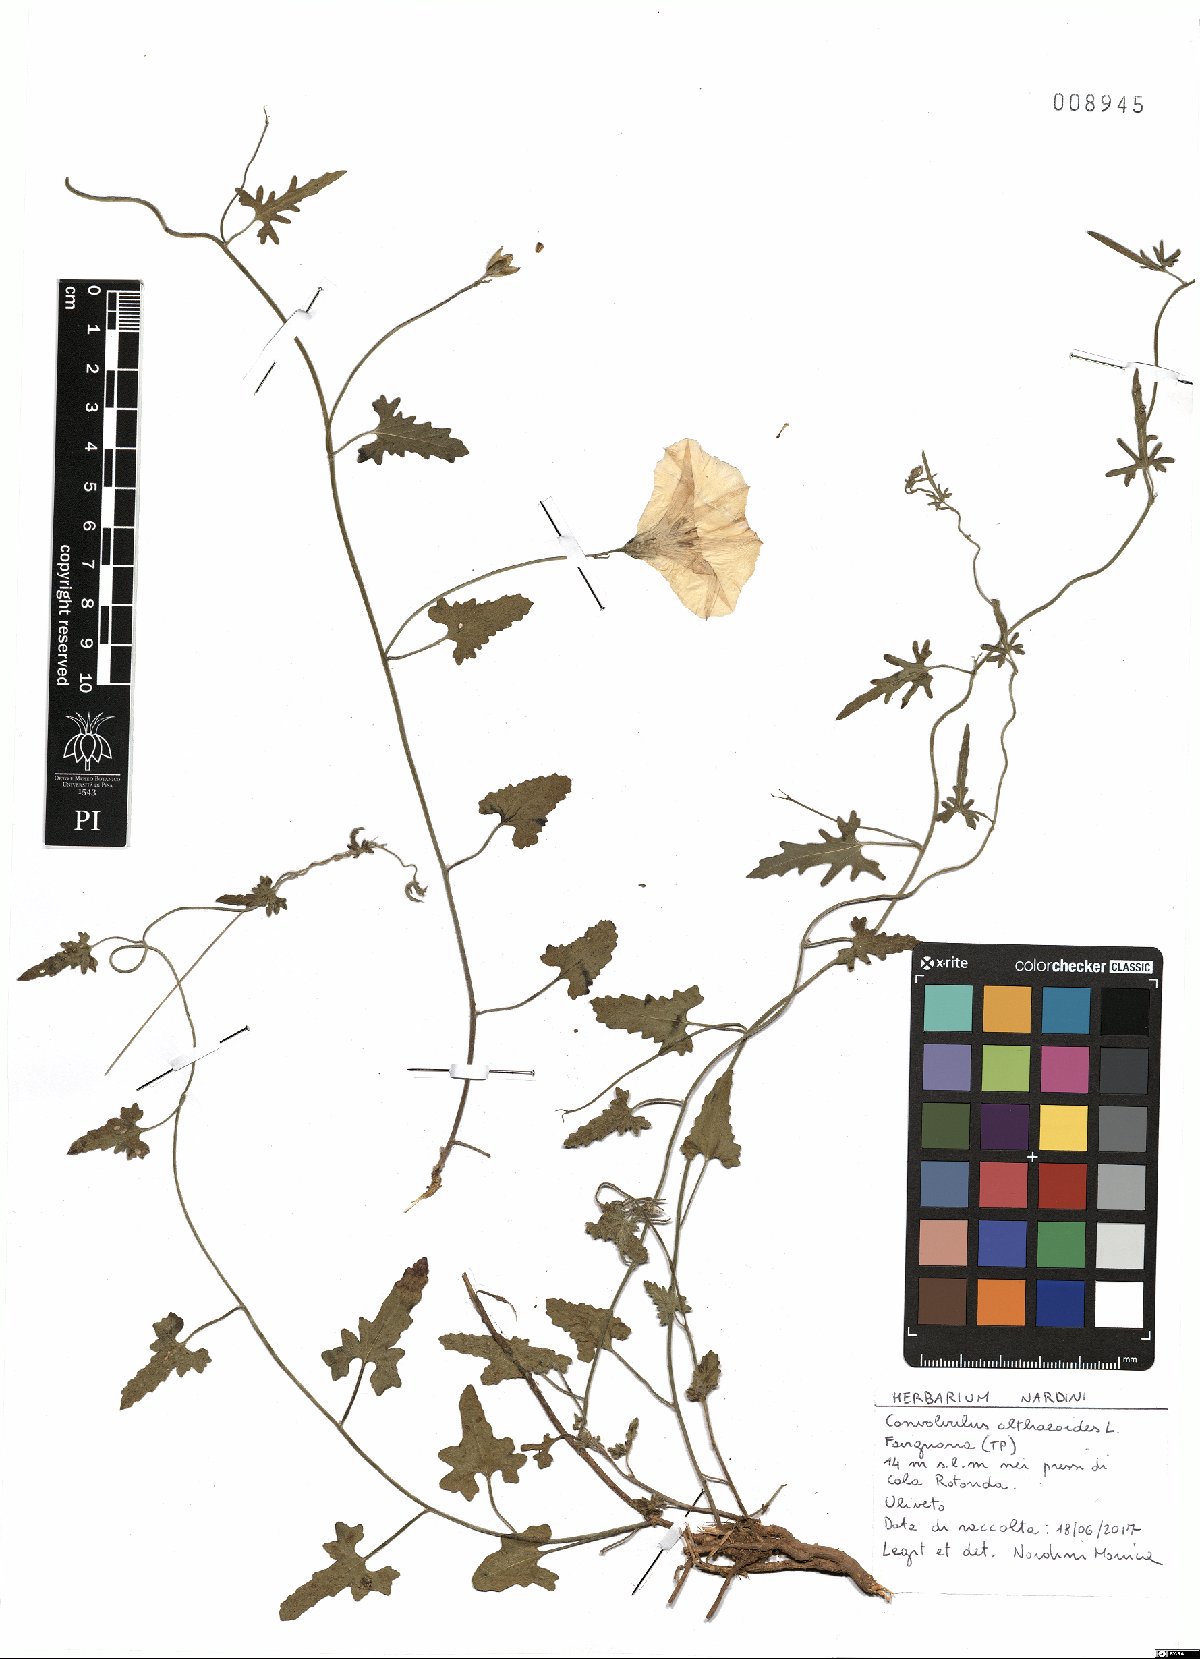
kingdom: Plantae
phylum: Tracheophyta
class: Magnoliopsida
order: Solanales
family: Convolvulaceae
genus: Convolvulus
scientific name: Convolvulus althaeoides
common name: Mallow bindweed
